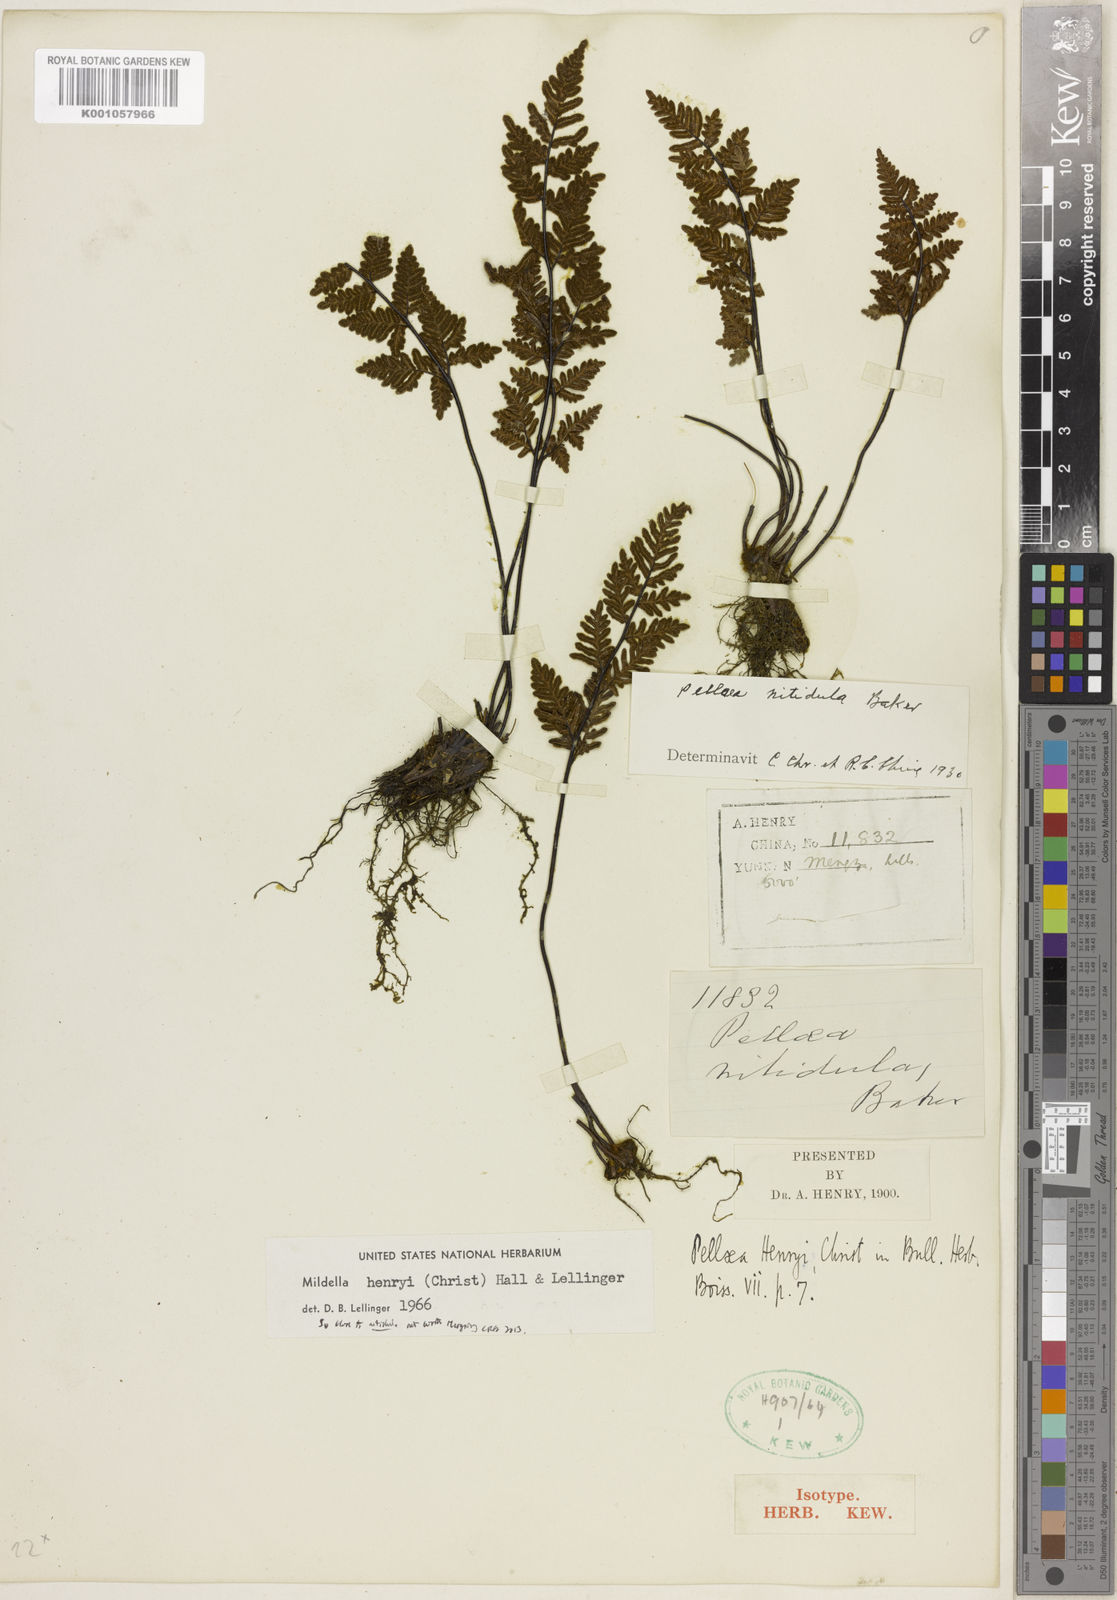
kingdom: Plantae
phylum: Tracheophyta
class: Polypodiopsida
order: Polypodiales
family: Pteridaceae
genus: Mildella
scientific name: Mildella nitidula
